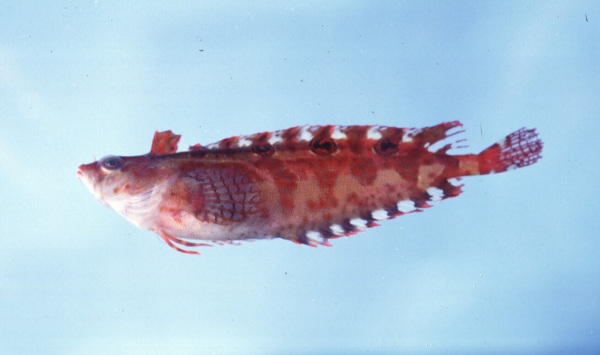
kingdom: Animalia
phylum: Chordata
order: Perciformes
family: Clinidae
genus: Pavoclinus
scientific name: Pavoclinus graminis
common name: Grass klipfish
